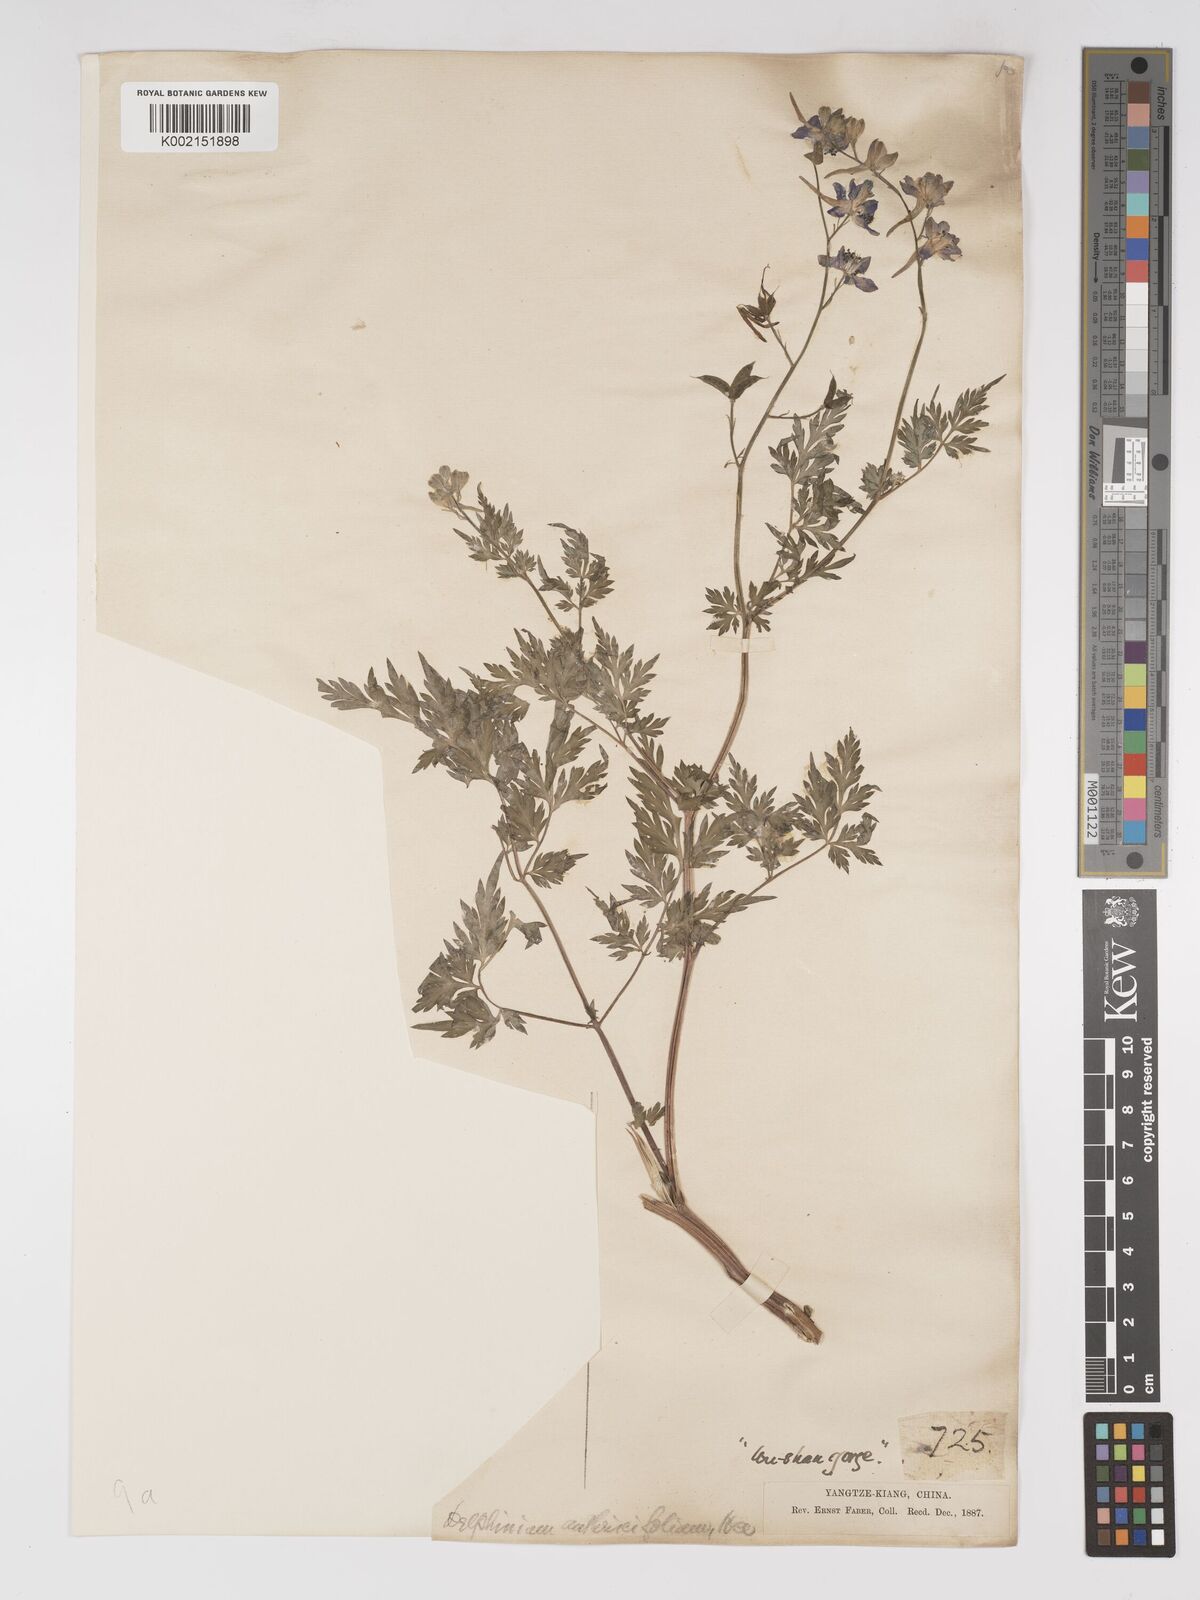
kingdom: Plantae
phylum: Tracheophyta
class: Magnoliopsida
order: Ranunculales
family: Ranunculaceae
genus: Delphinium
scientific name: Delphinium anthriscifolium
